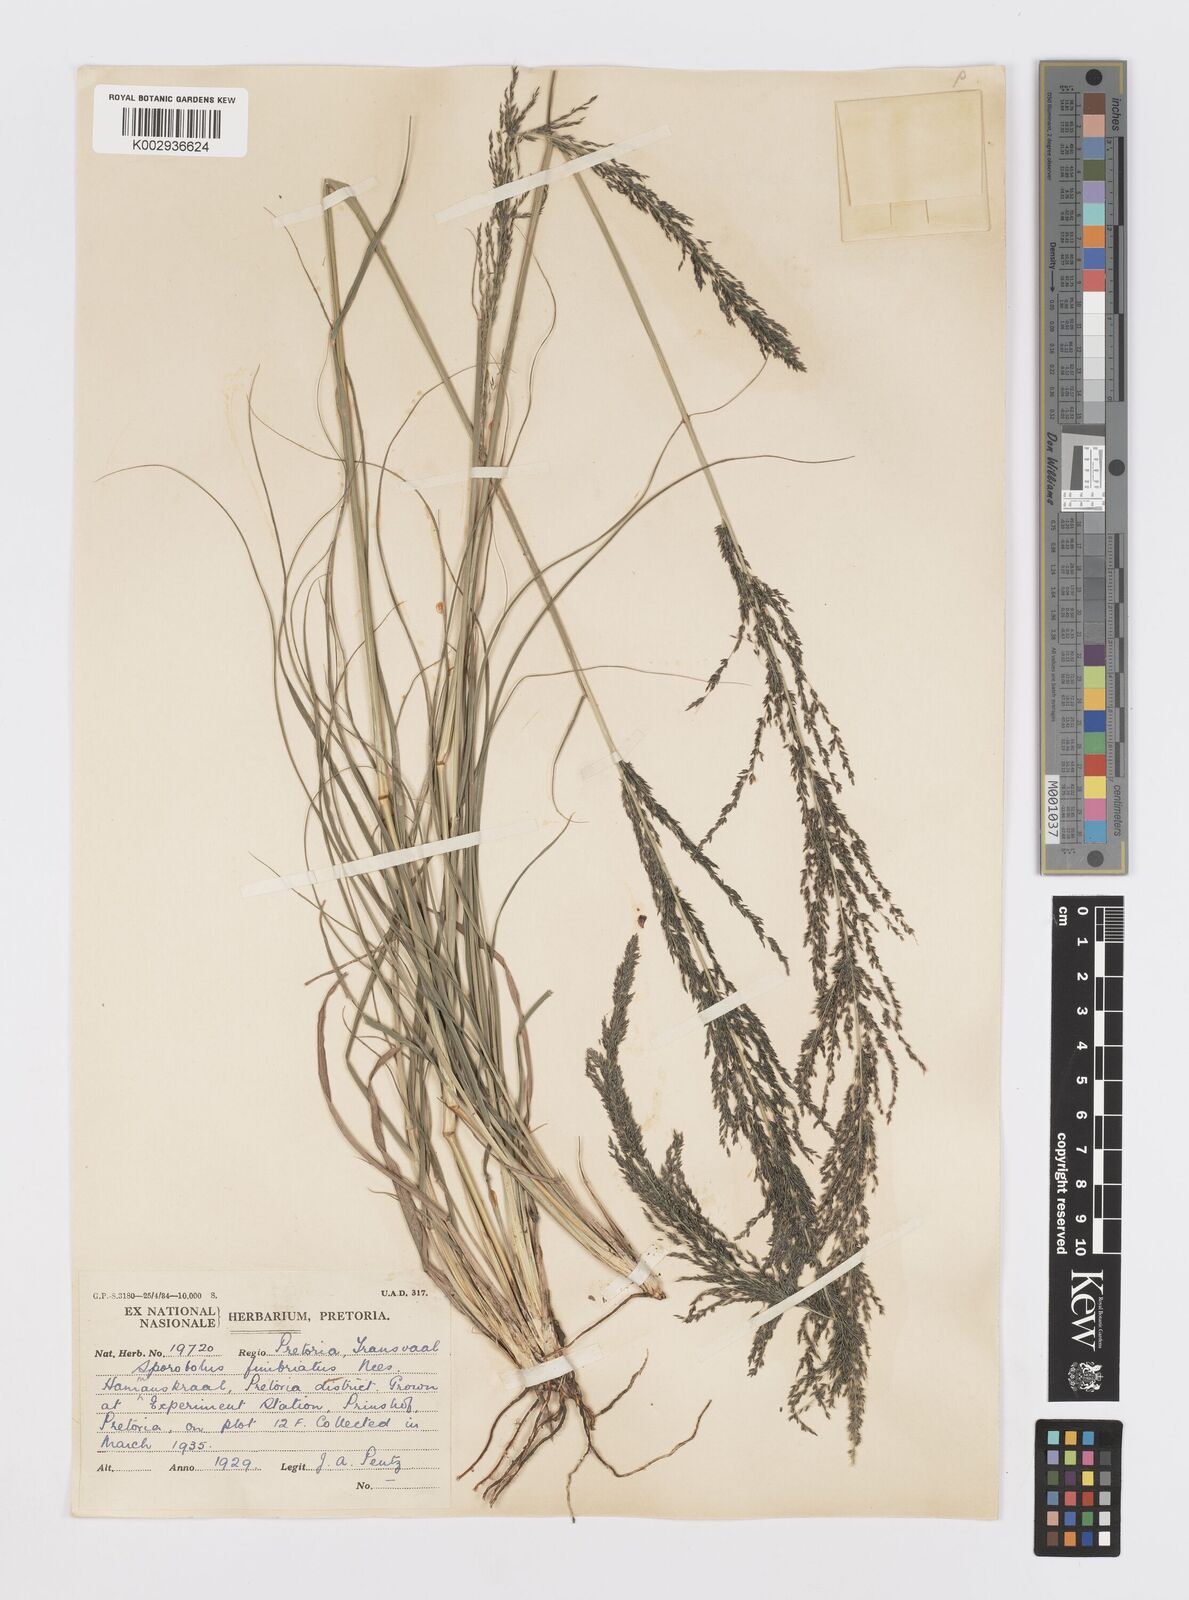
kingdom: Plantae
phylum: Tracheophyta
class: Liliopsida
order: Poales
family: Poaceae
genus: Sporobolus
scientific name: Sporobolus fimbriatus
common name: Fringed dropseed
